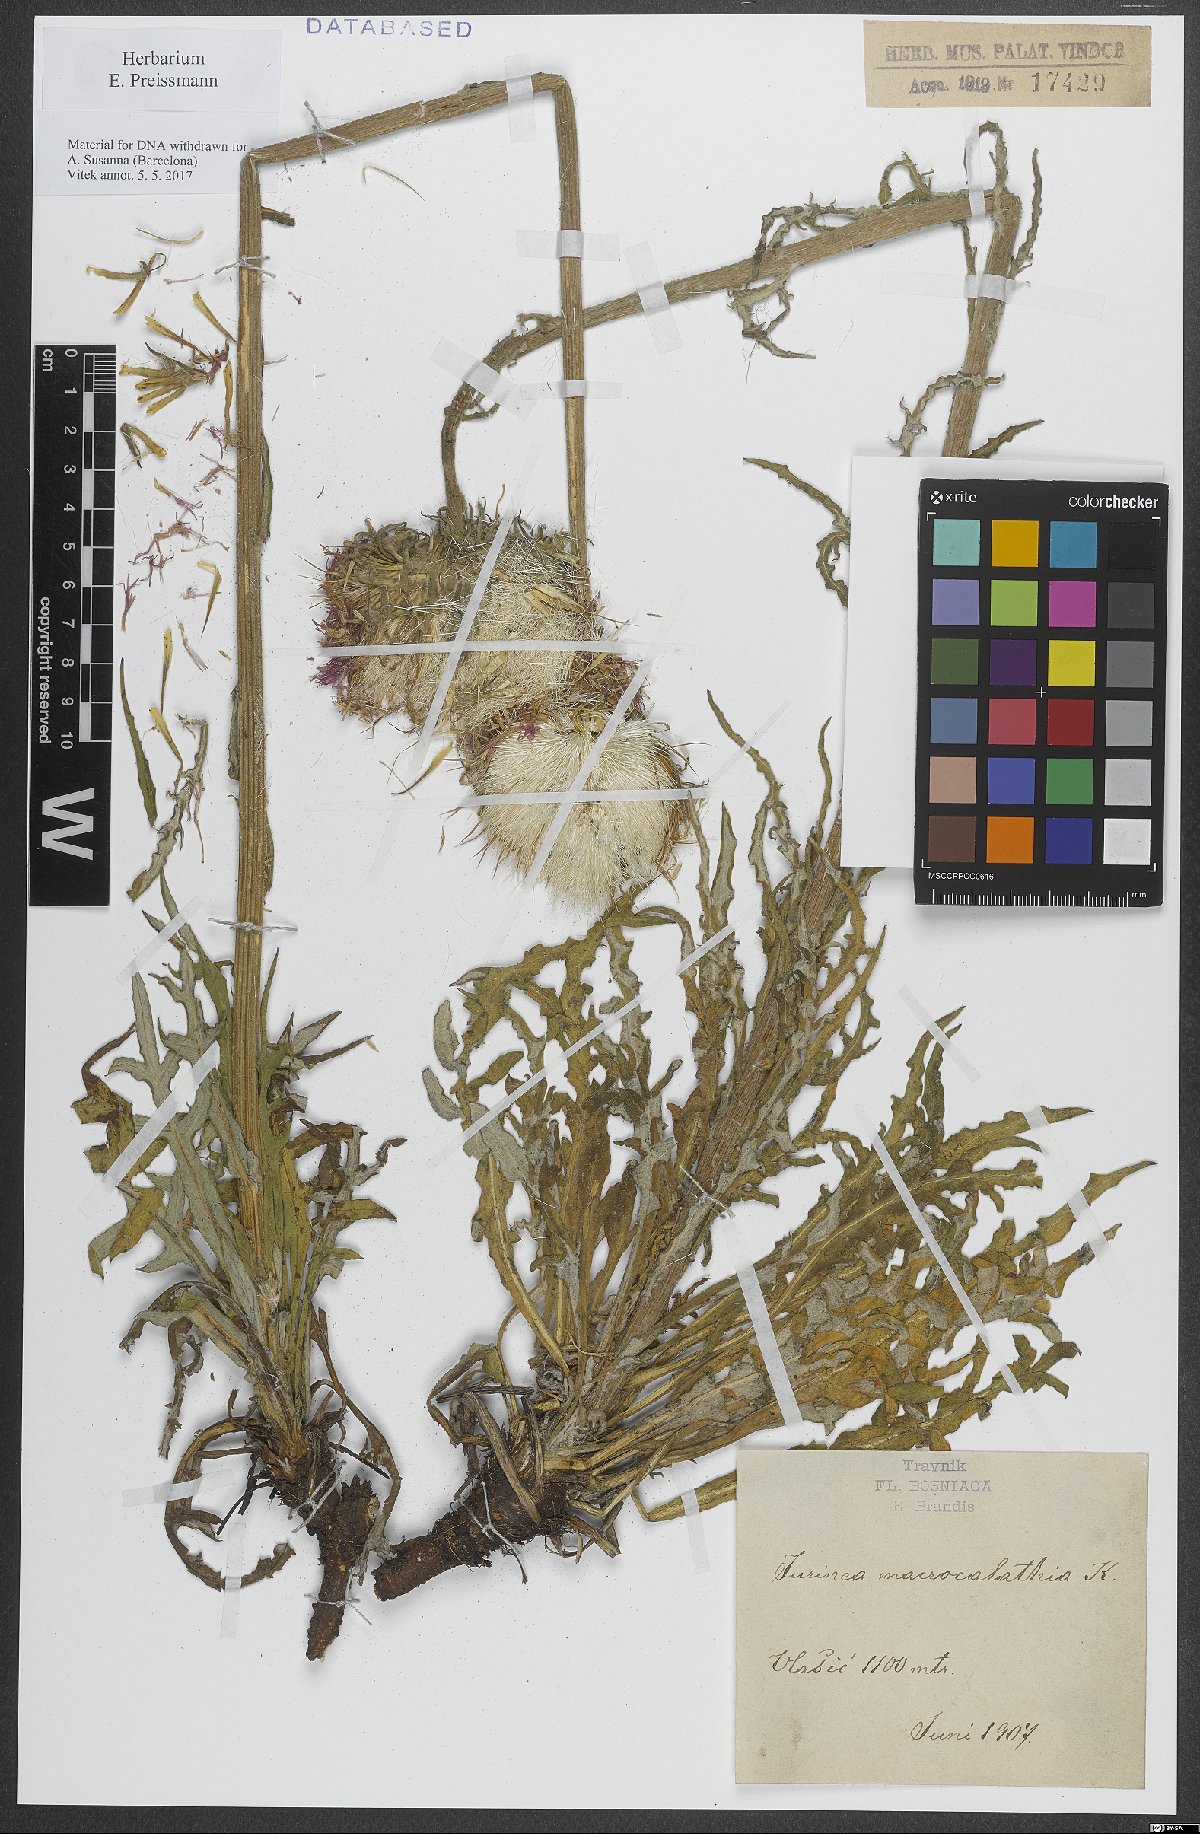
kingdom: Plantae
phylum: Tracheophyta
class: Magnoliopsida
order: Asterales
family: Asteraceae
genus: Jurinea
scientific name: Jurinea glycacantha
